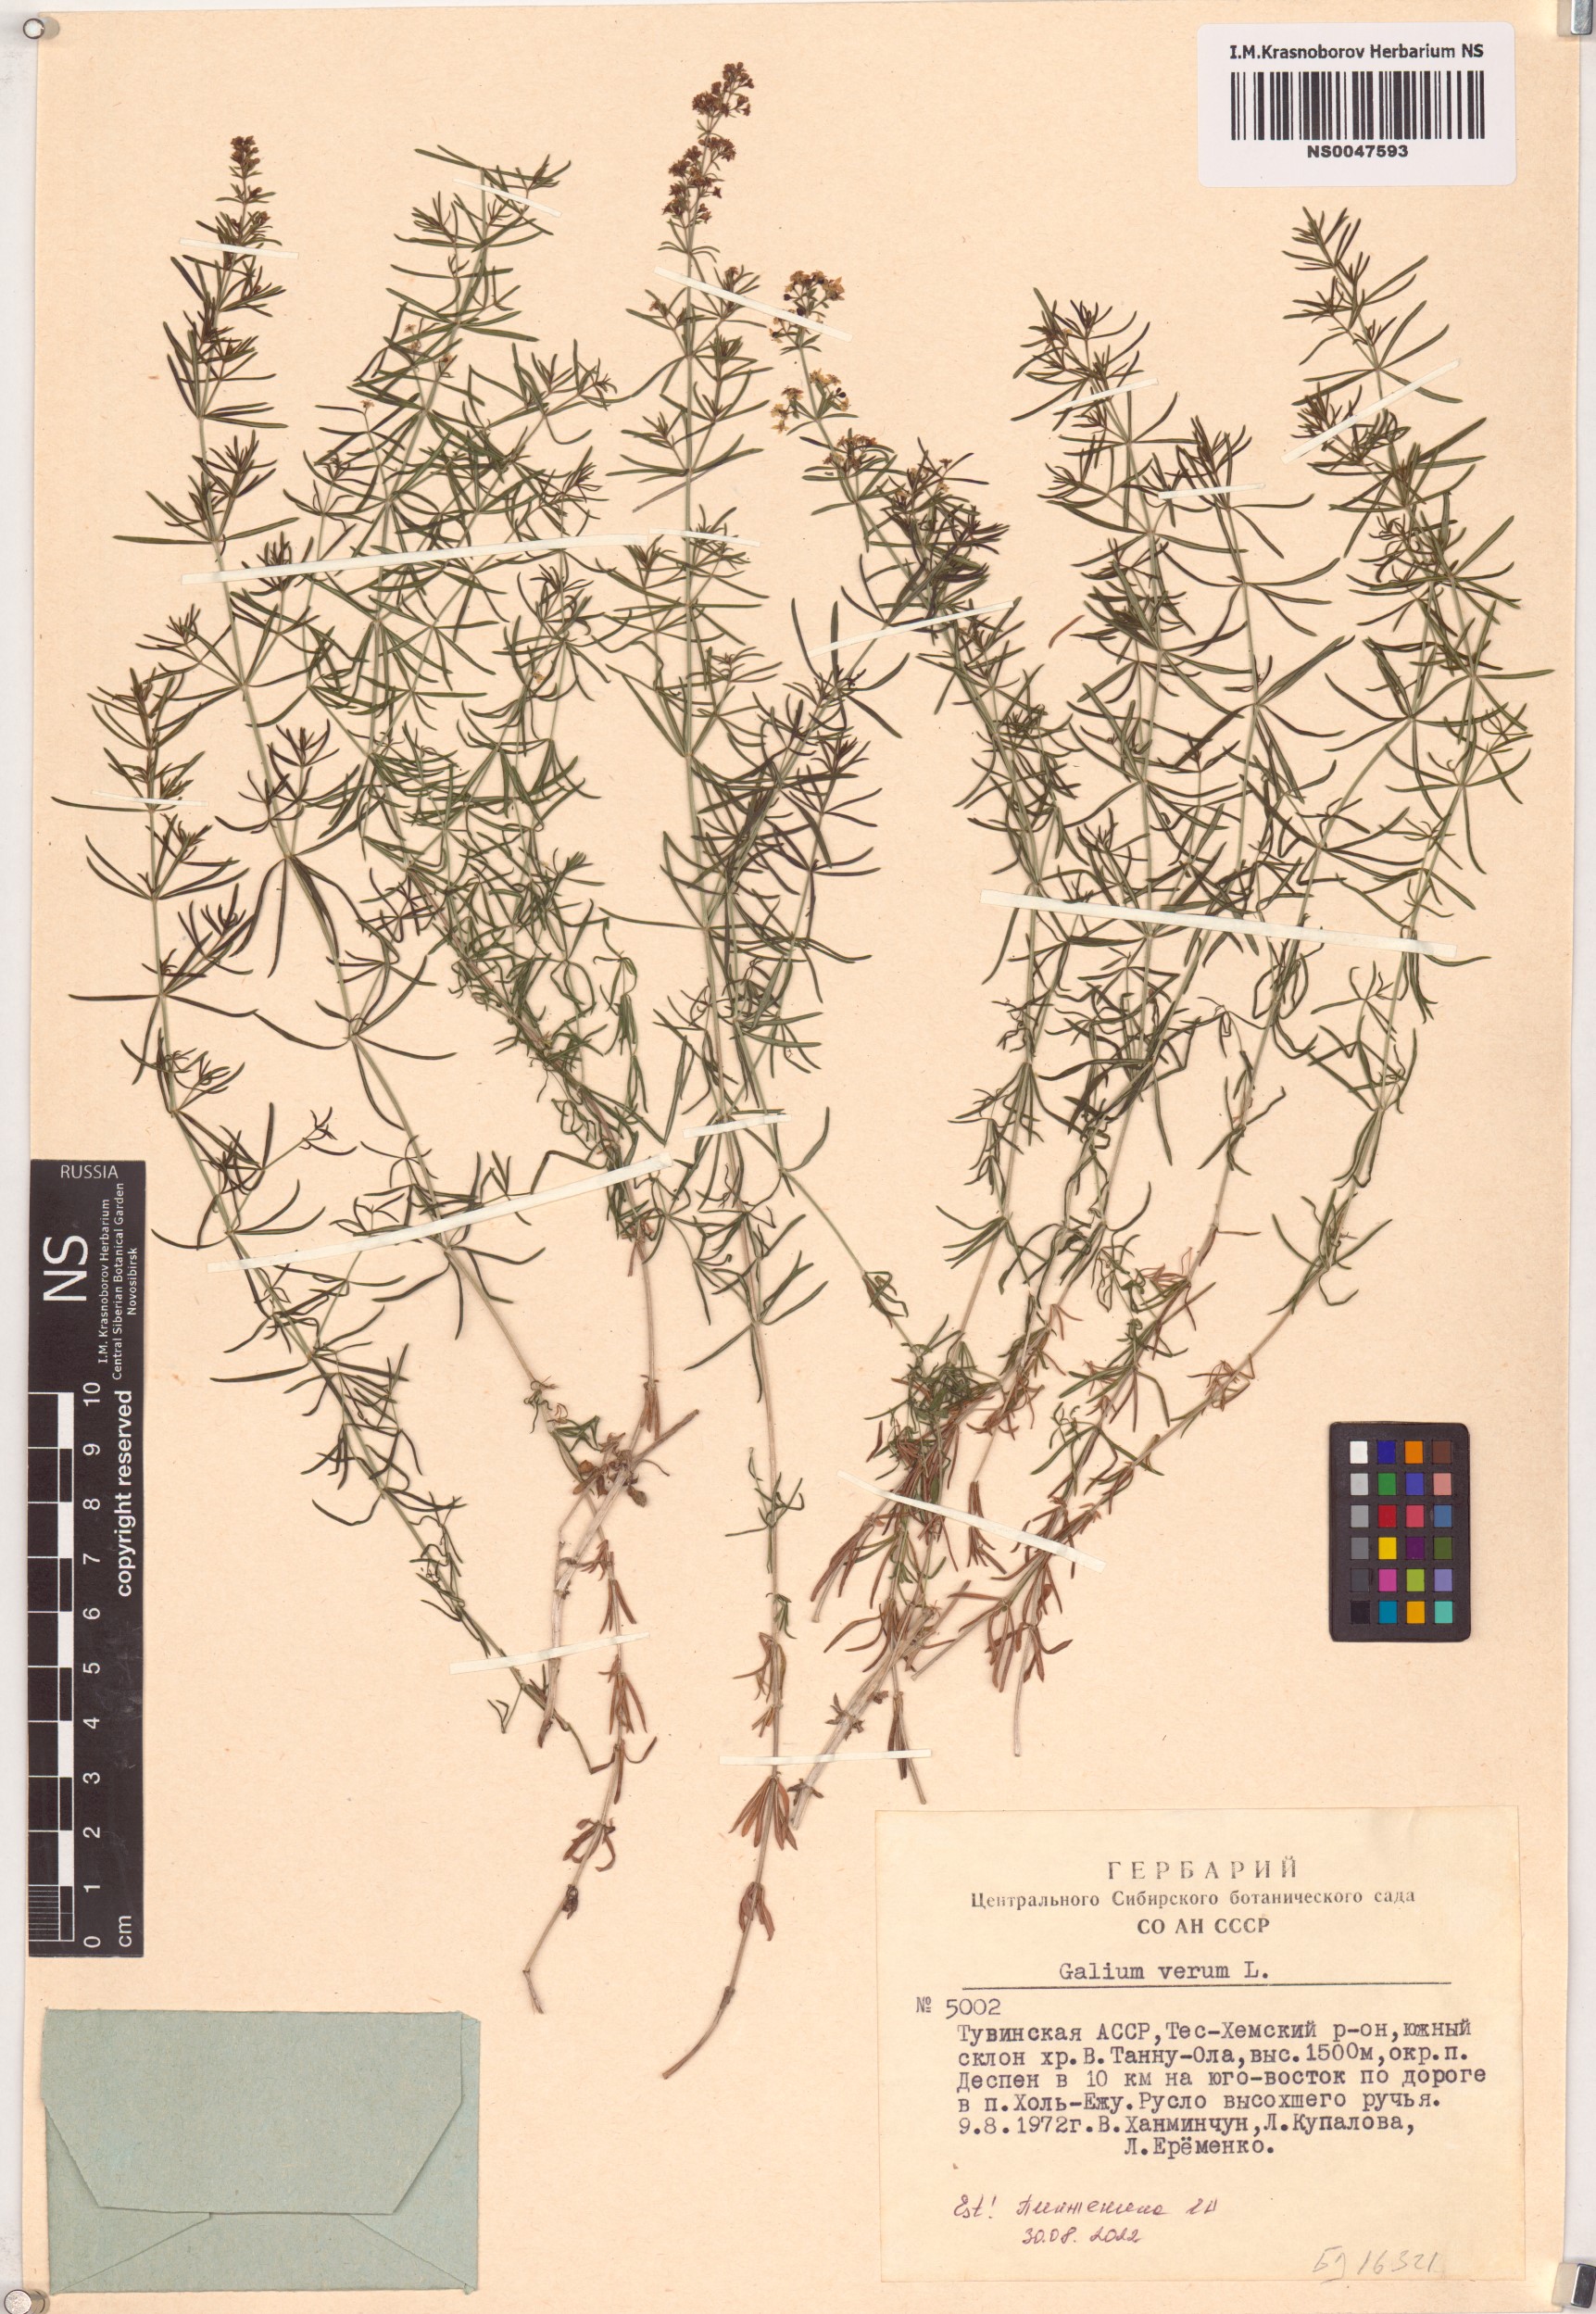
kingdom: Plantae
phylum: Tracheophyta
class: Magnoliopsida
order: Gentianales
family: Rubiaceae
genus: Galium
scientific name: Galium verum
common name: Lady's bedstraw
